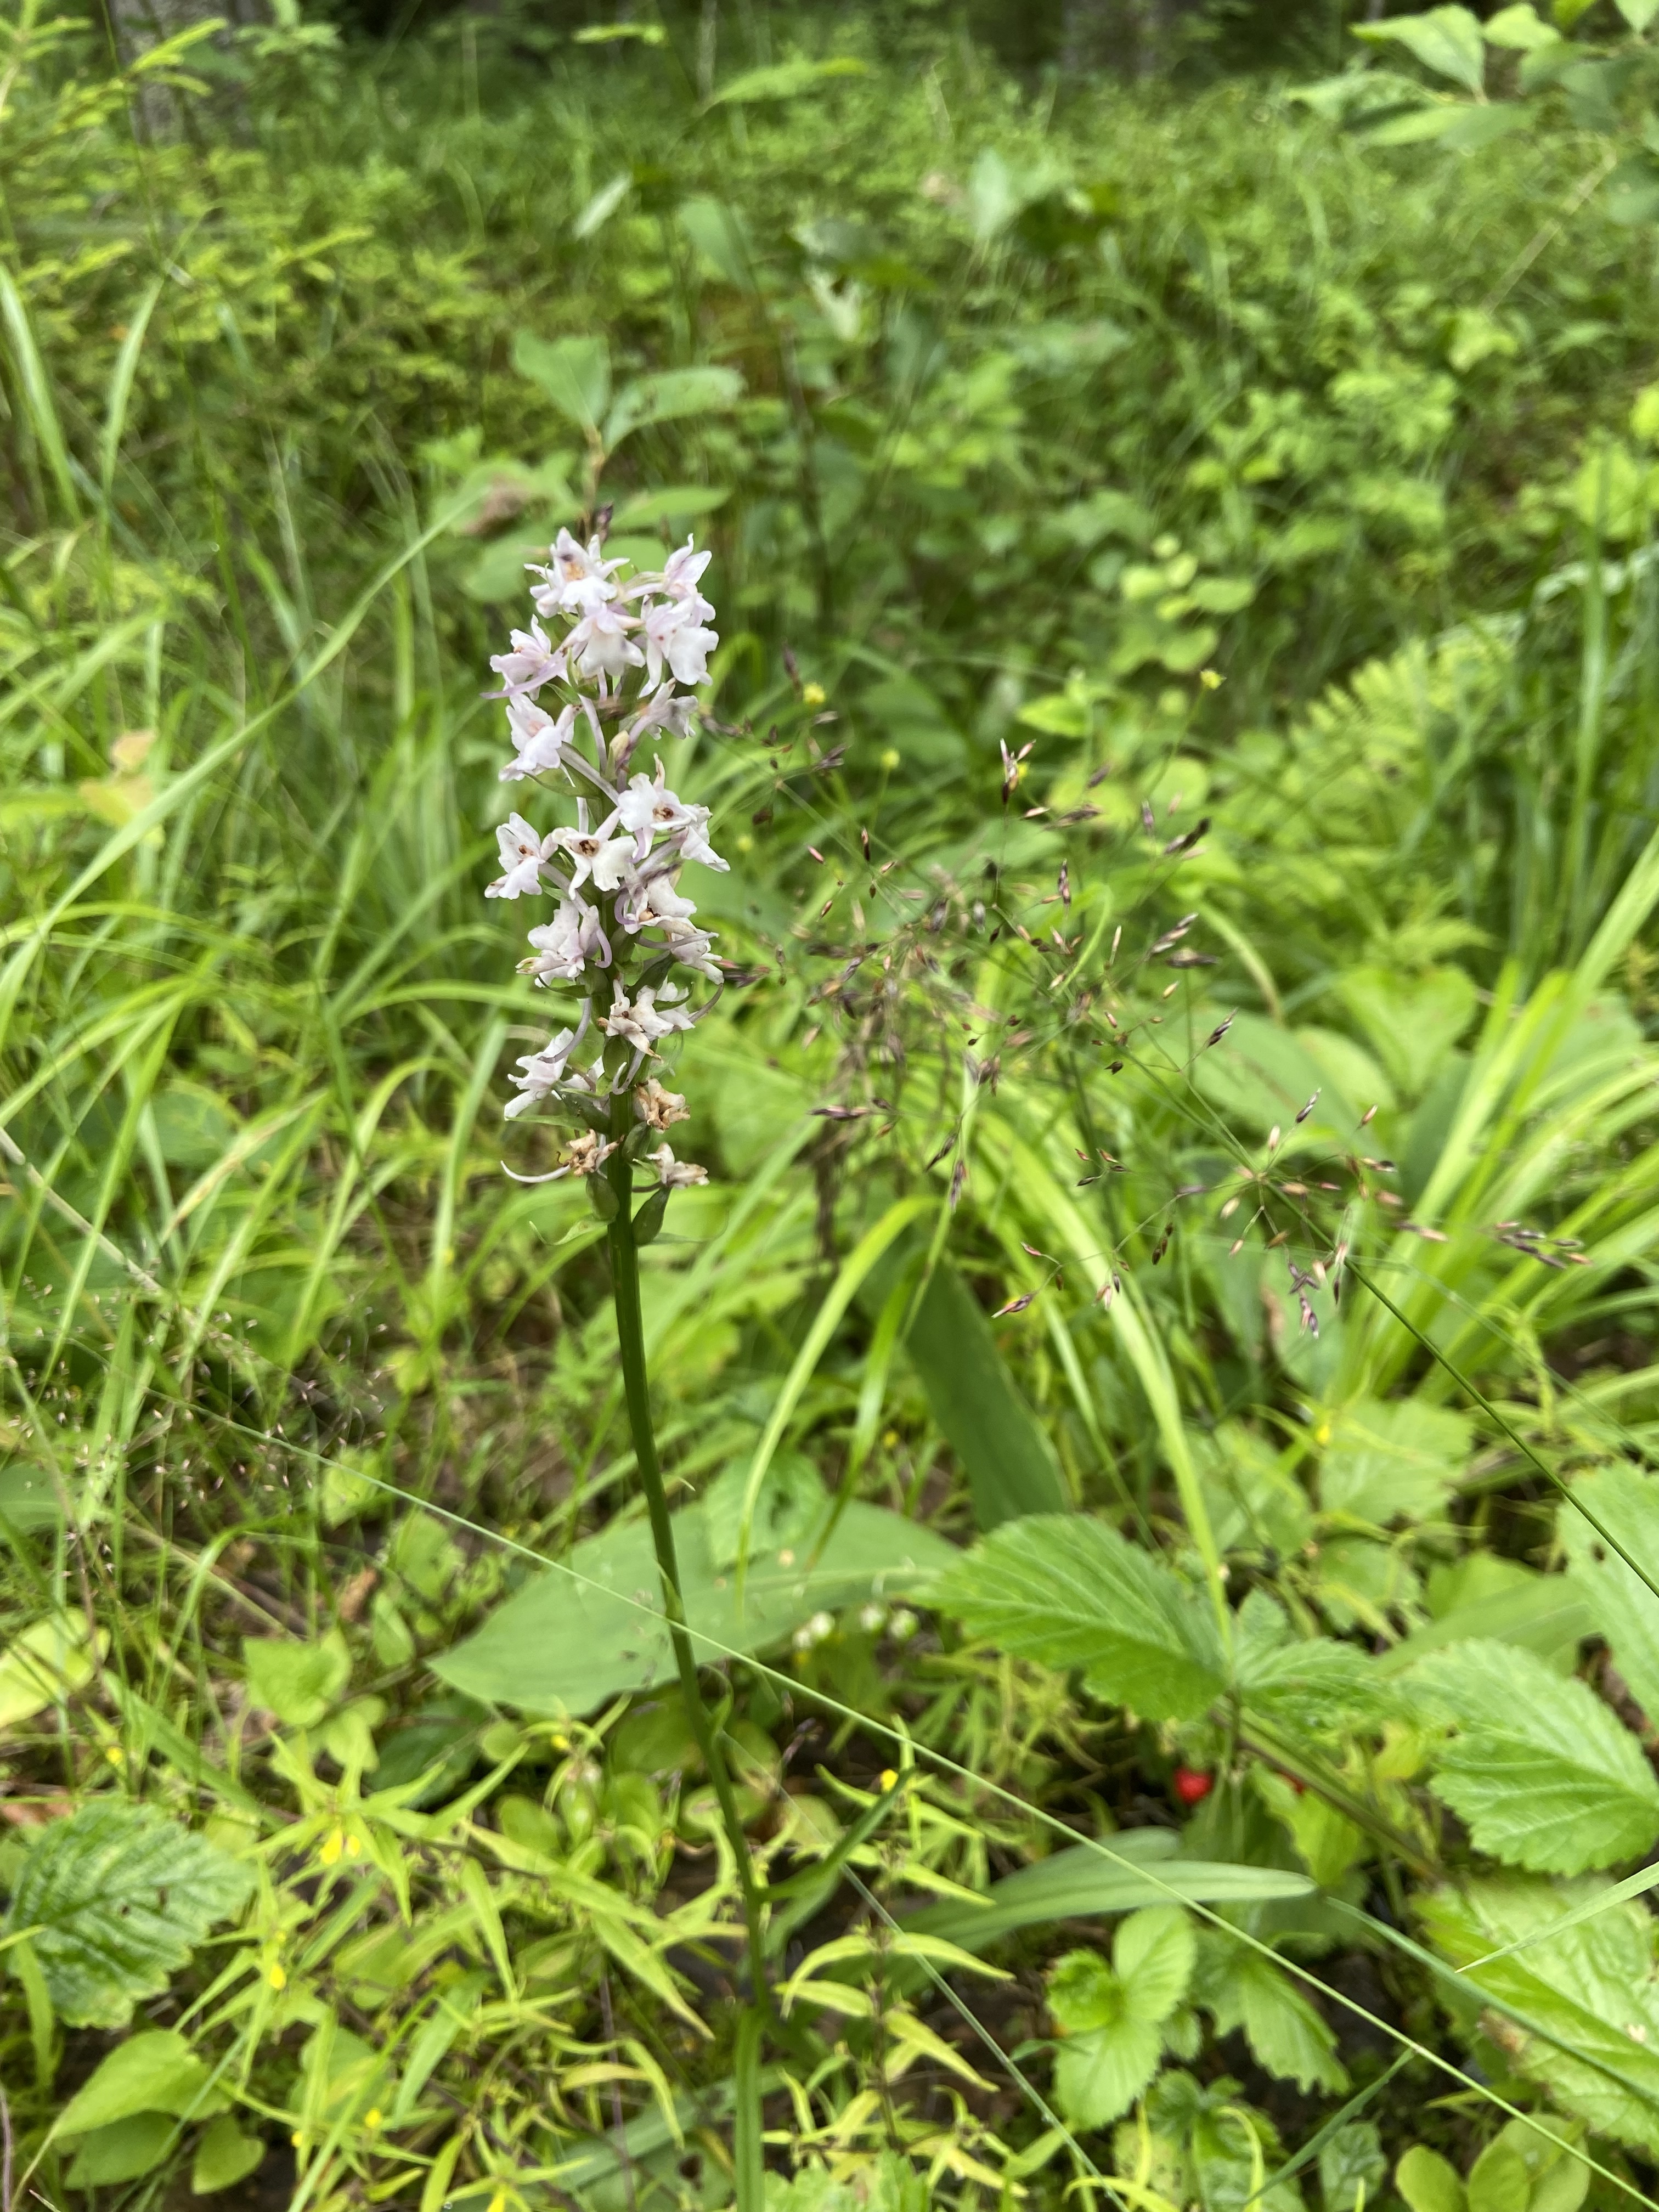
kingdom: Plantae
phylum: Tracheophyta
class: Liliopsida
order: Asparagales
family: Orchidaceae
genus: Gymnadenia
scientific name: Gymnadenia conopsea
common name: Fragrant orchid
